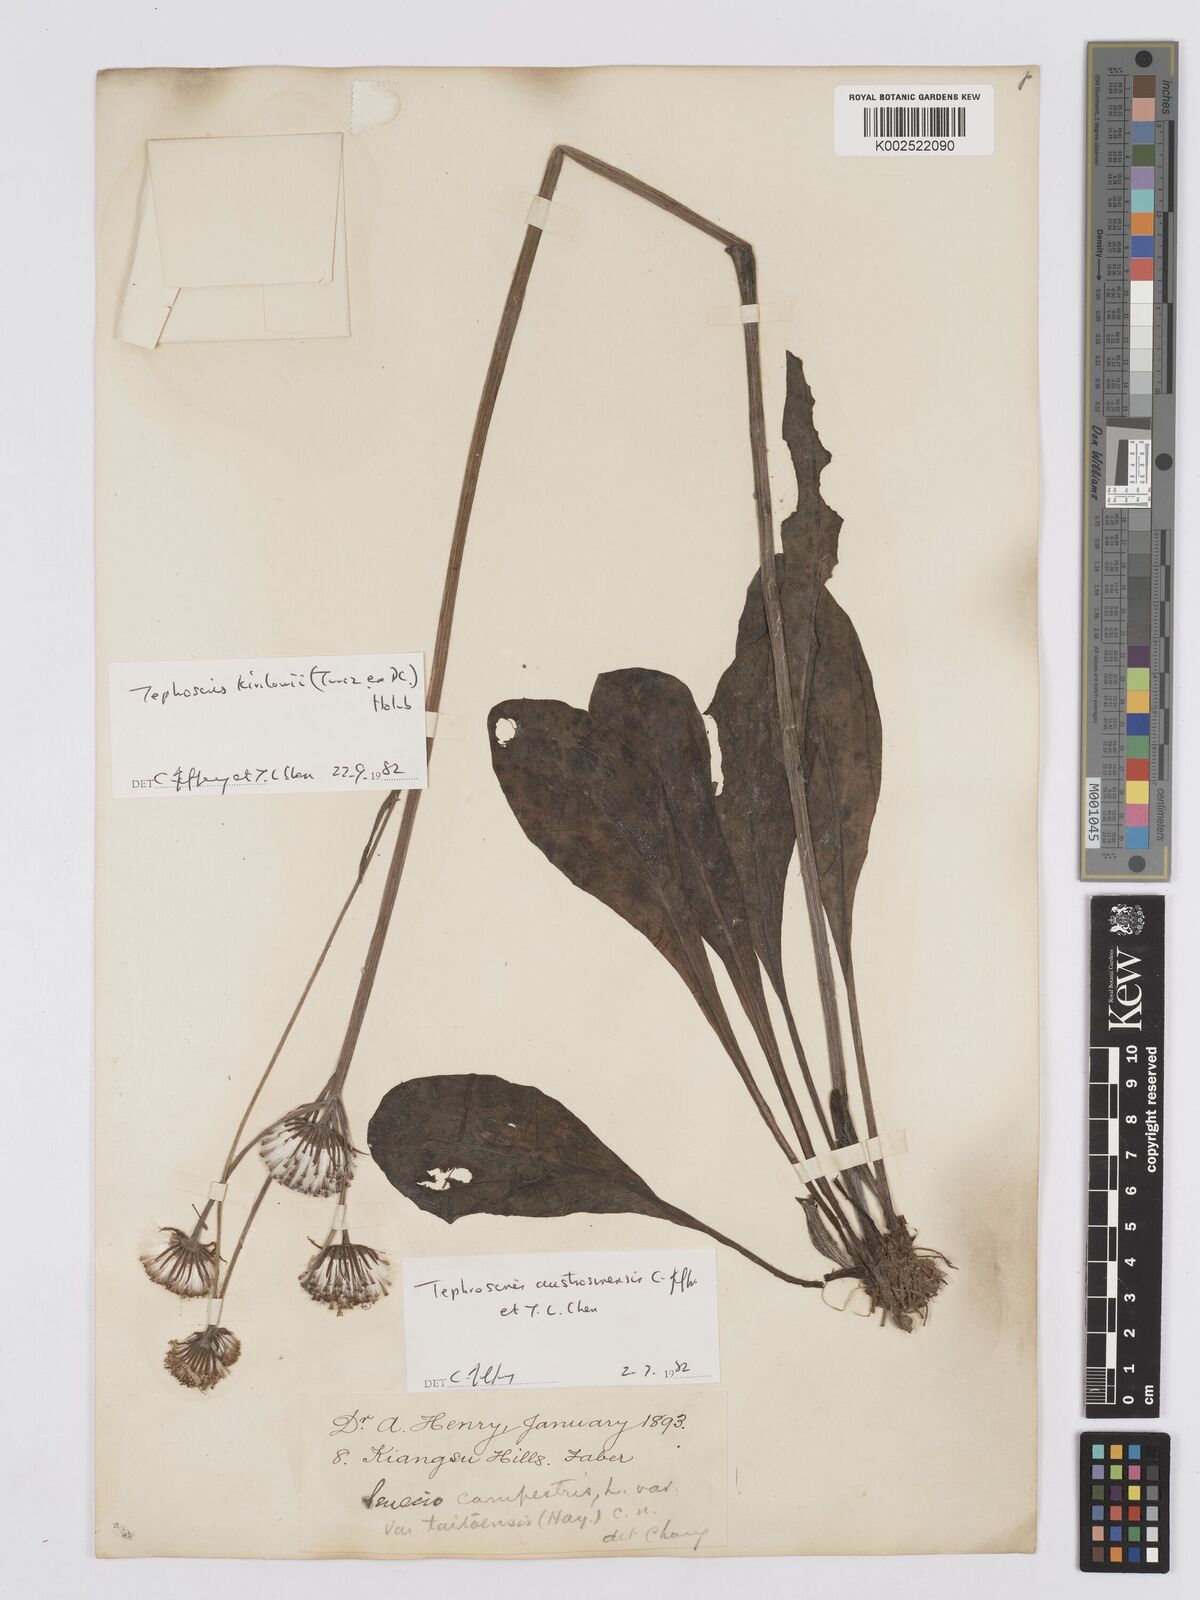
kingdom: Plantae
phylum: Tracheophyta
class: Magnoliopsida
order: Asterales
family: Asteraceae
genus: Tephroseris
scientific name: Tephroseris kirilowii
